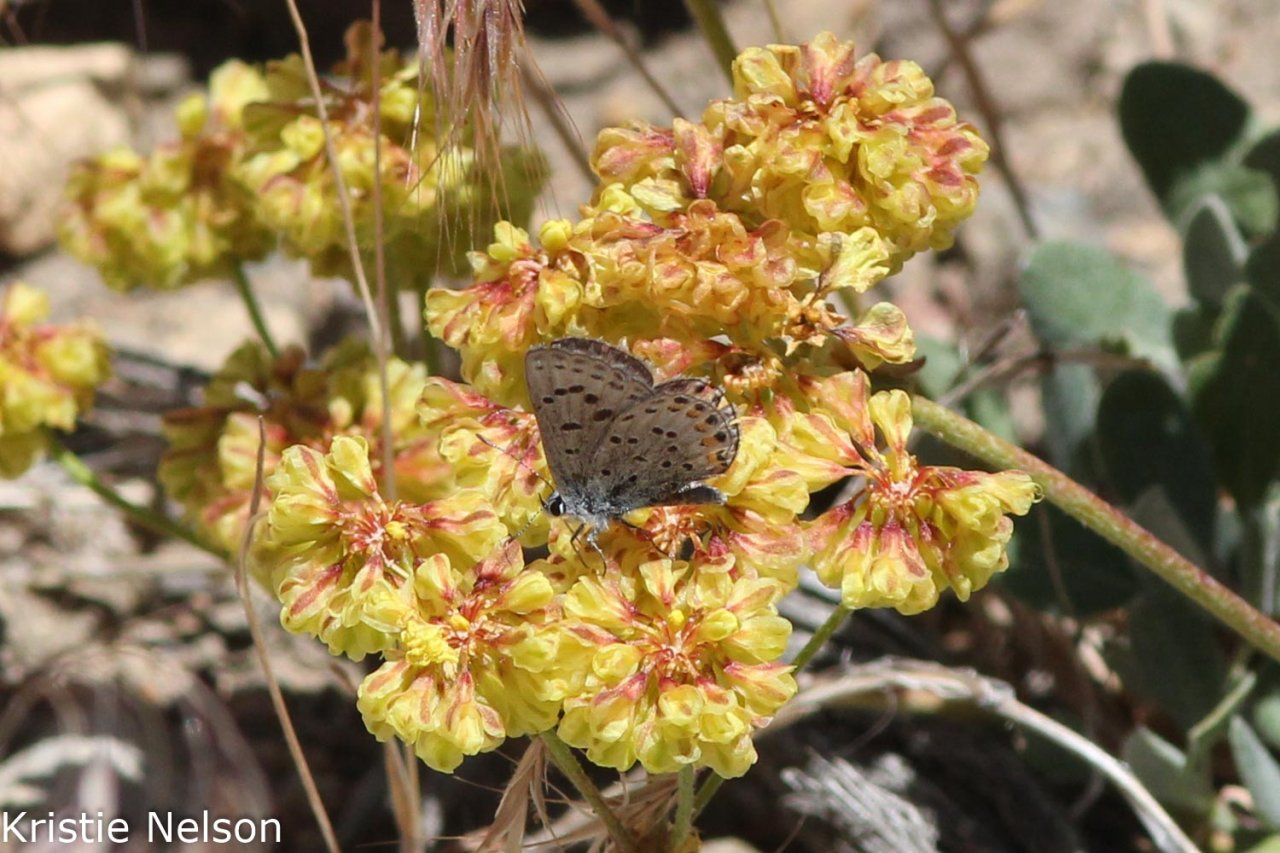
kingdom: Animalia
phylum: Arthropoda
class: Insecta
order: Lepidoptera
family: Lycaenidae
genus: Plebejus
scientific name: Plebejus lupini
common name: Lupine Blue
